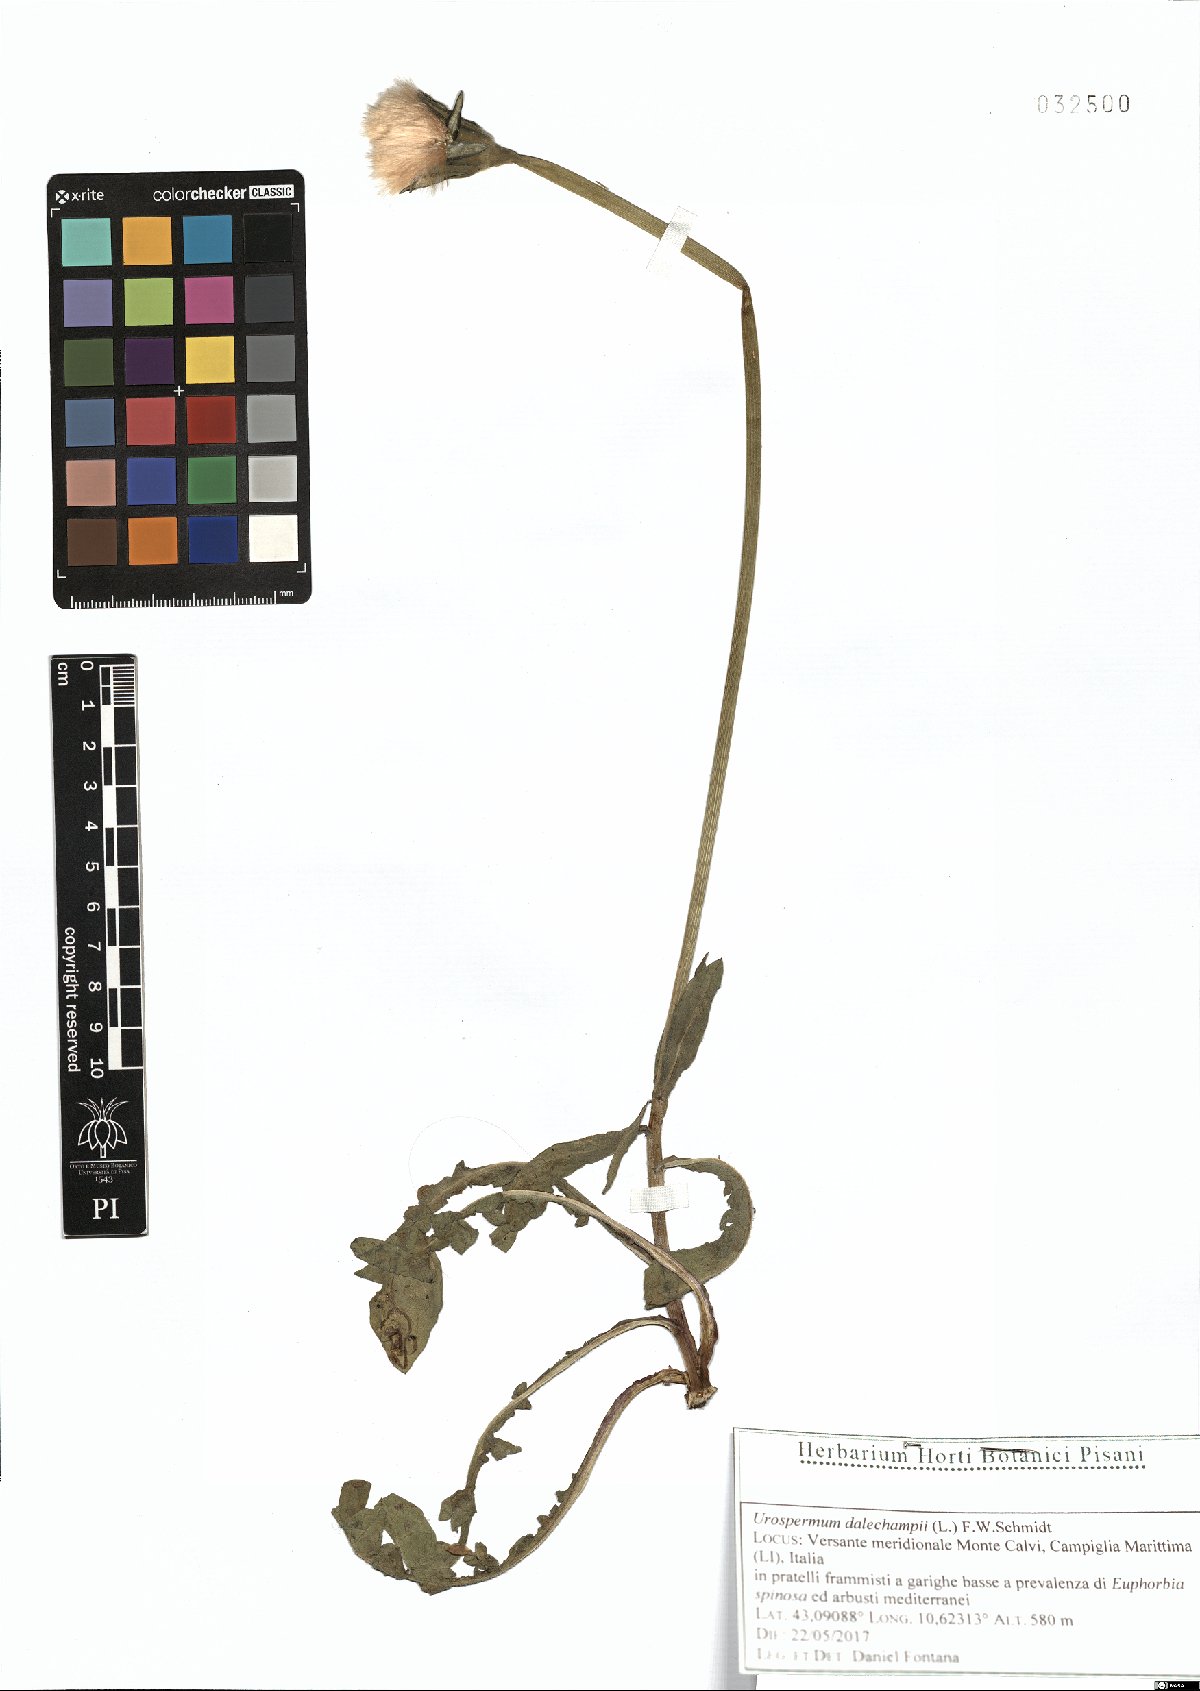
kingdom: Plantae
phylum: Tracheophyta
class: Magnoliopsida
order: Asterales
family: Asteraceae
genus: Urospermum
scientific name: Urospermum dalechampii
